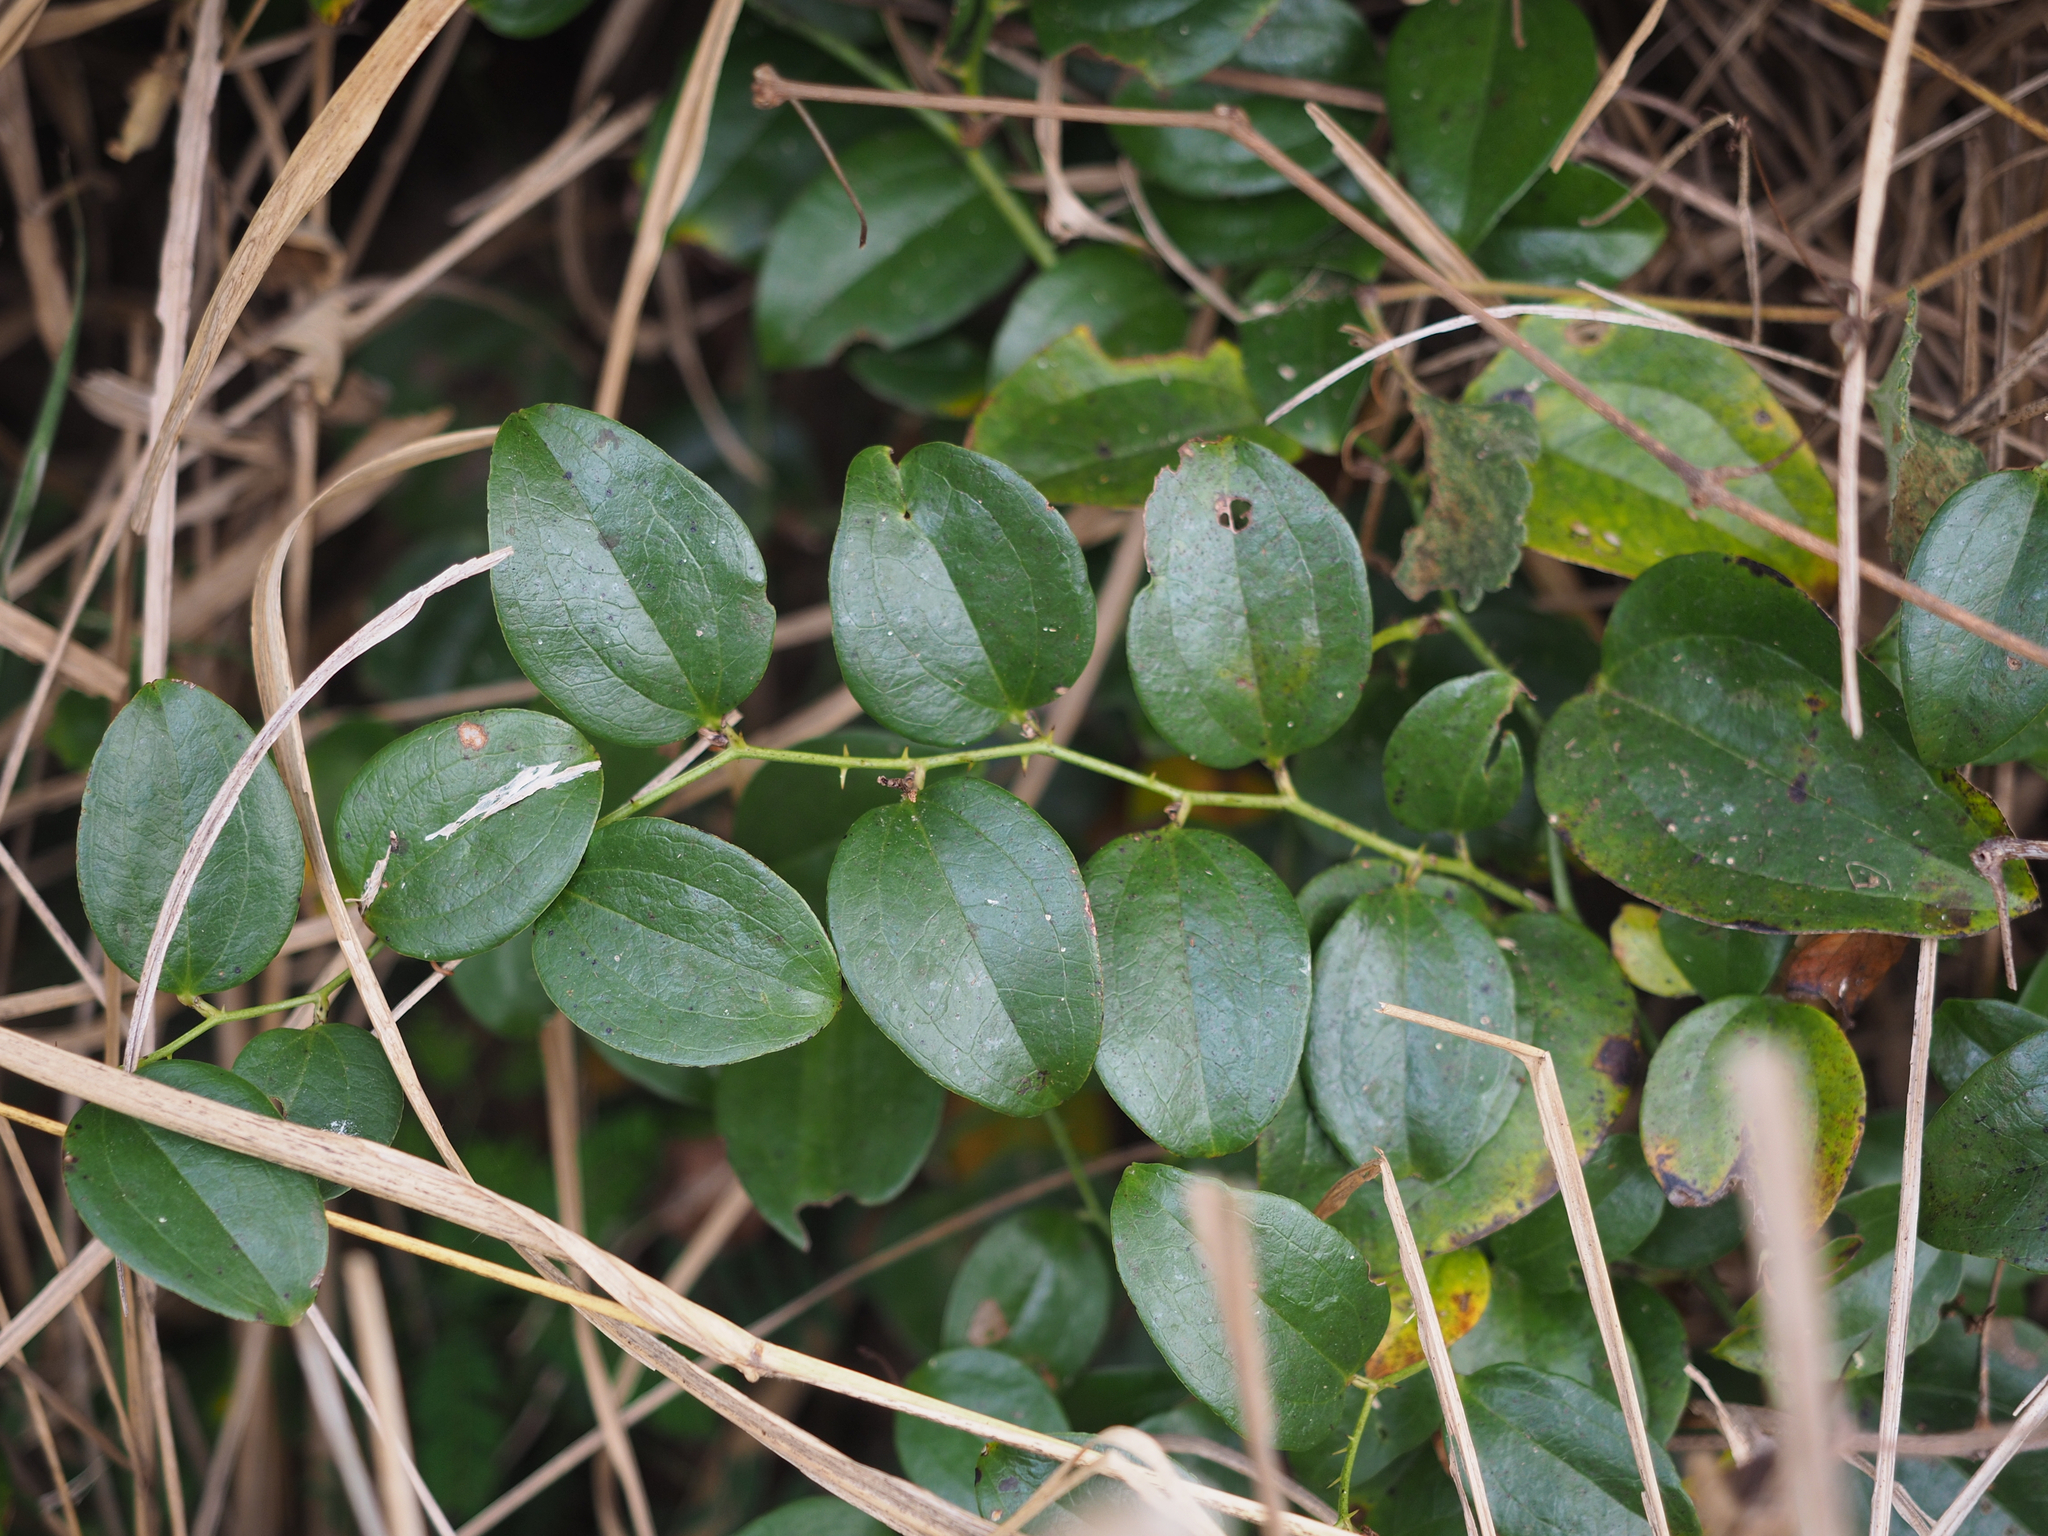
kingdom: Plantae
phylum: Tracheophyta
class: Liliopsida
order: Liliales
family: Smilacaceae
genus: Smilax
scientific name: Smilax china
